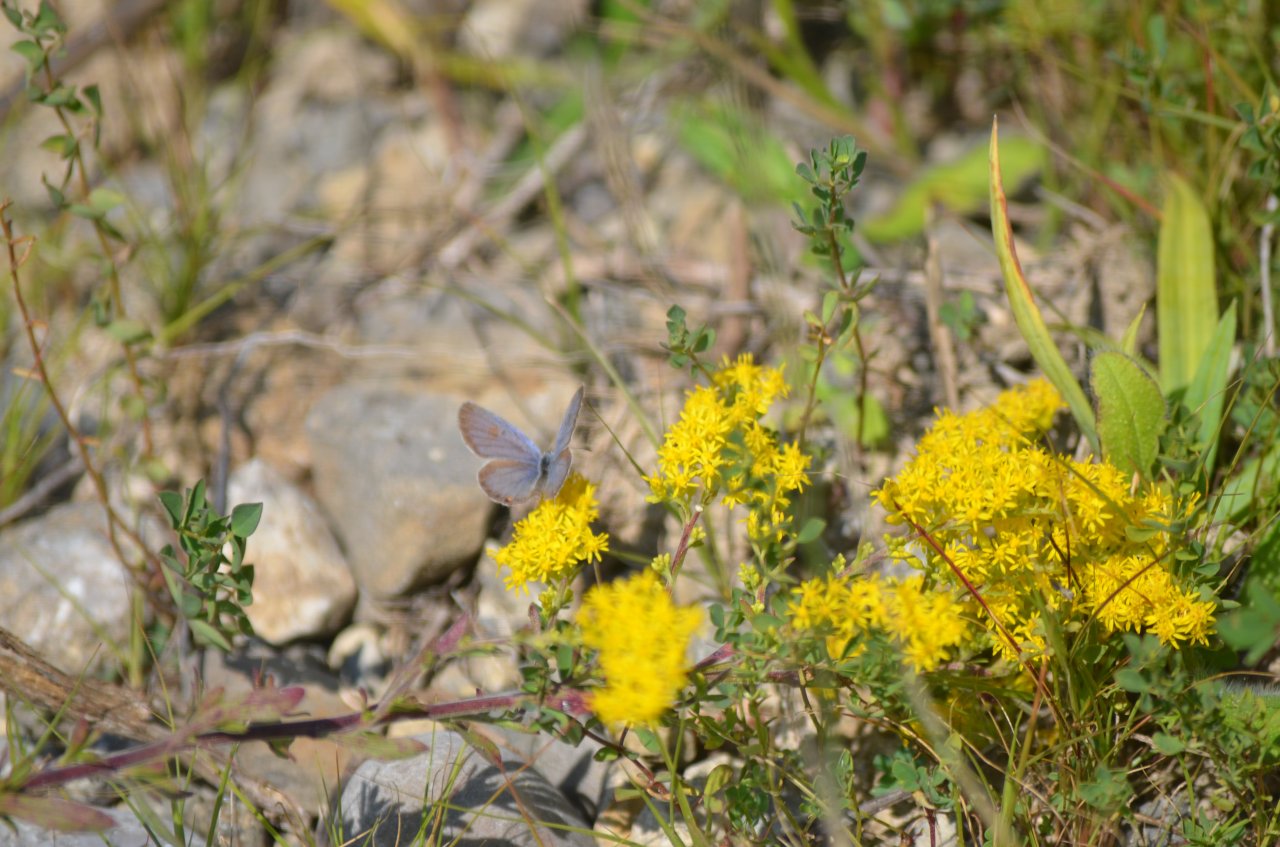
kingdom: Animalia
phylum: Arthropoda
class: Insecta
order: Lepidoptera
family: Lycaenidae
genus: Elkalyce
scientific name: Elkalyce comyntas
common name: Eastern Tailed-Blue
